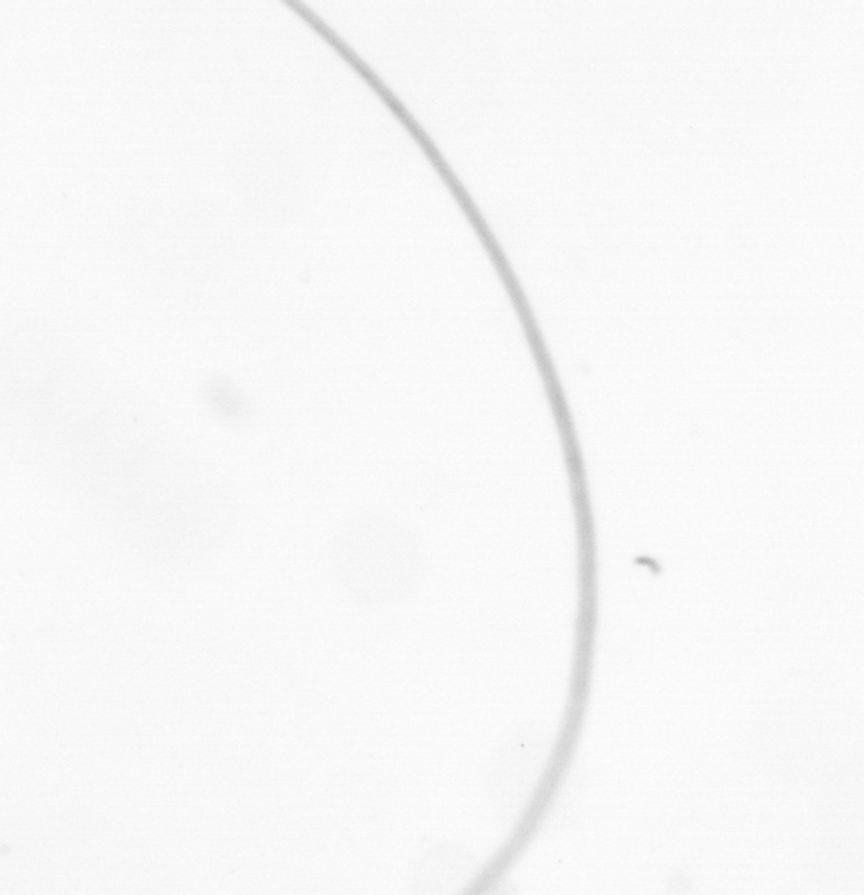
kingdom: Chromista
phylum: Ochrophyta
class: Bacillariophyceae
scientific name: Bacillariophyceae
